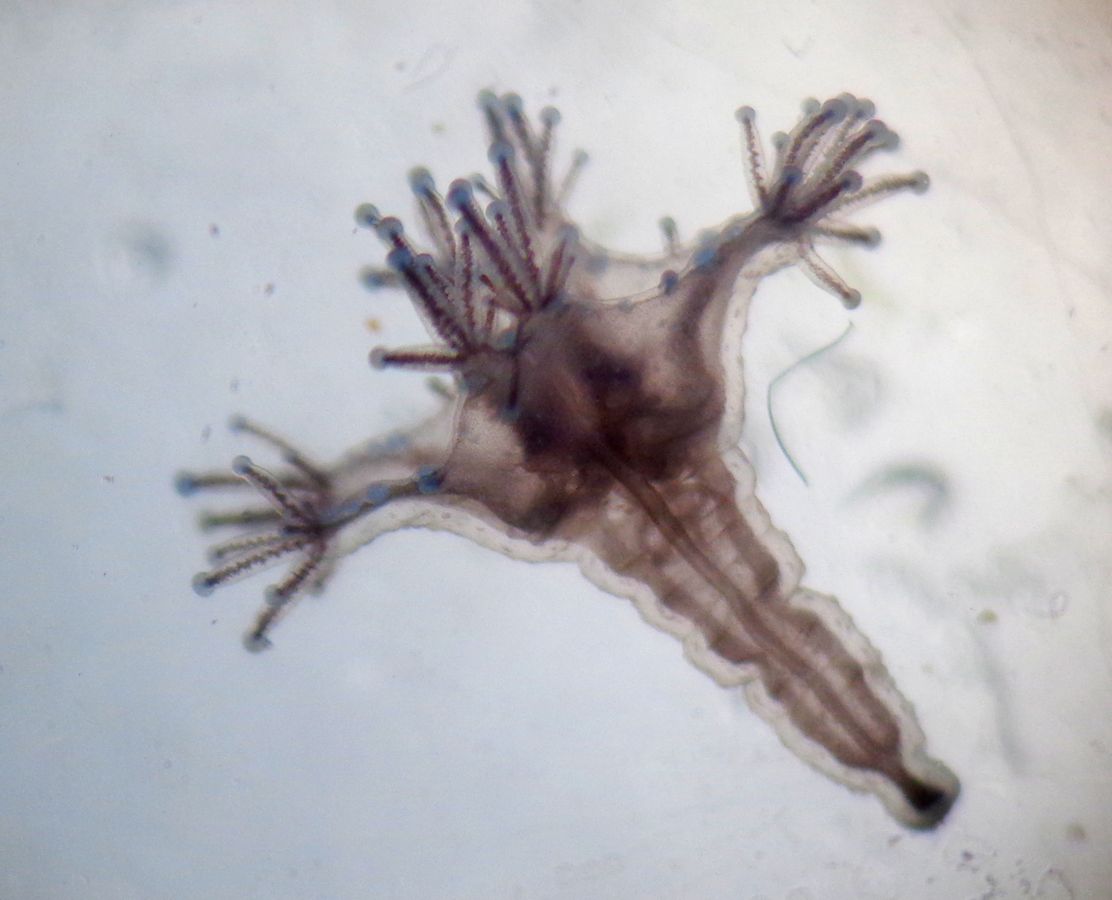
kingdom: Animalia
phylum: Cnidaria
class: Staurozoa
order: Stauromedusae
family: Lucernariidae
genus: Lucernaria
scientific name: Lucernaria quadricornis
